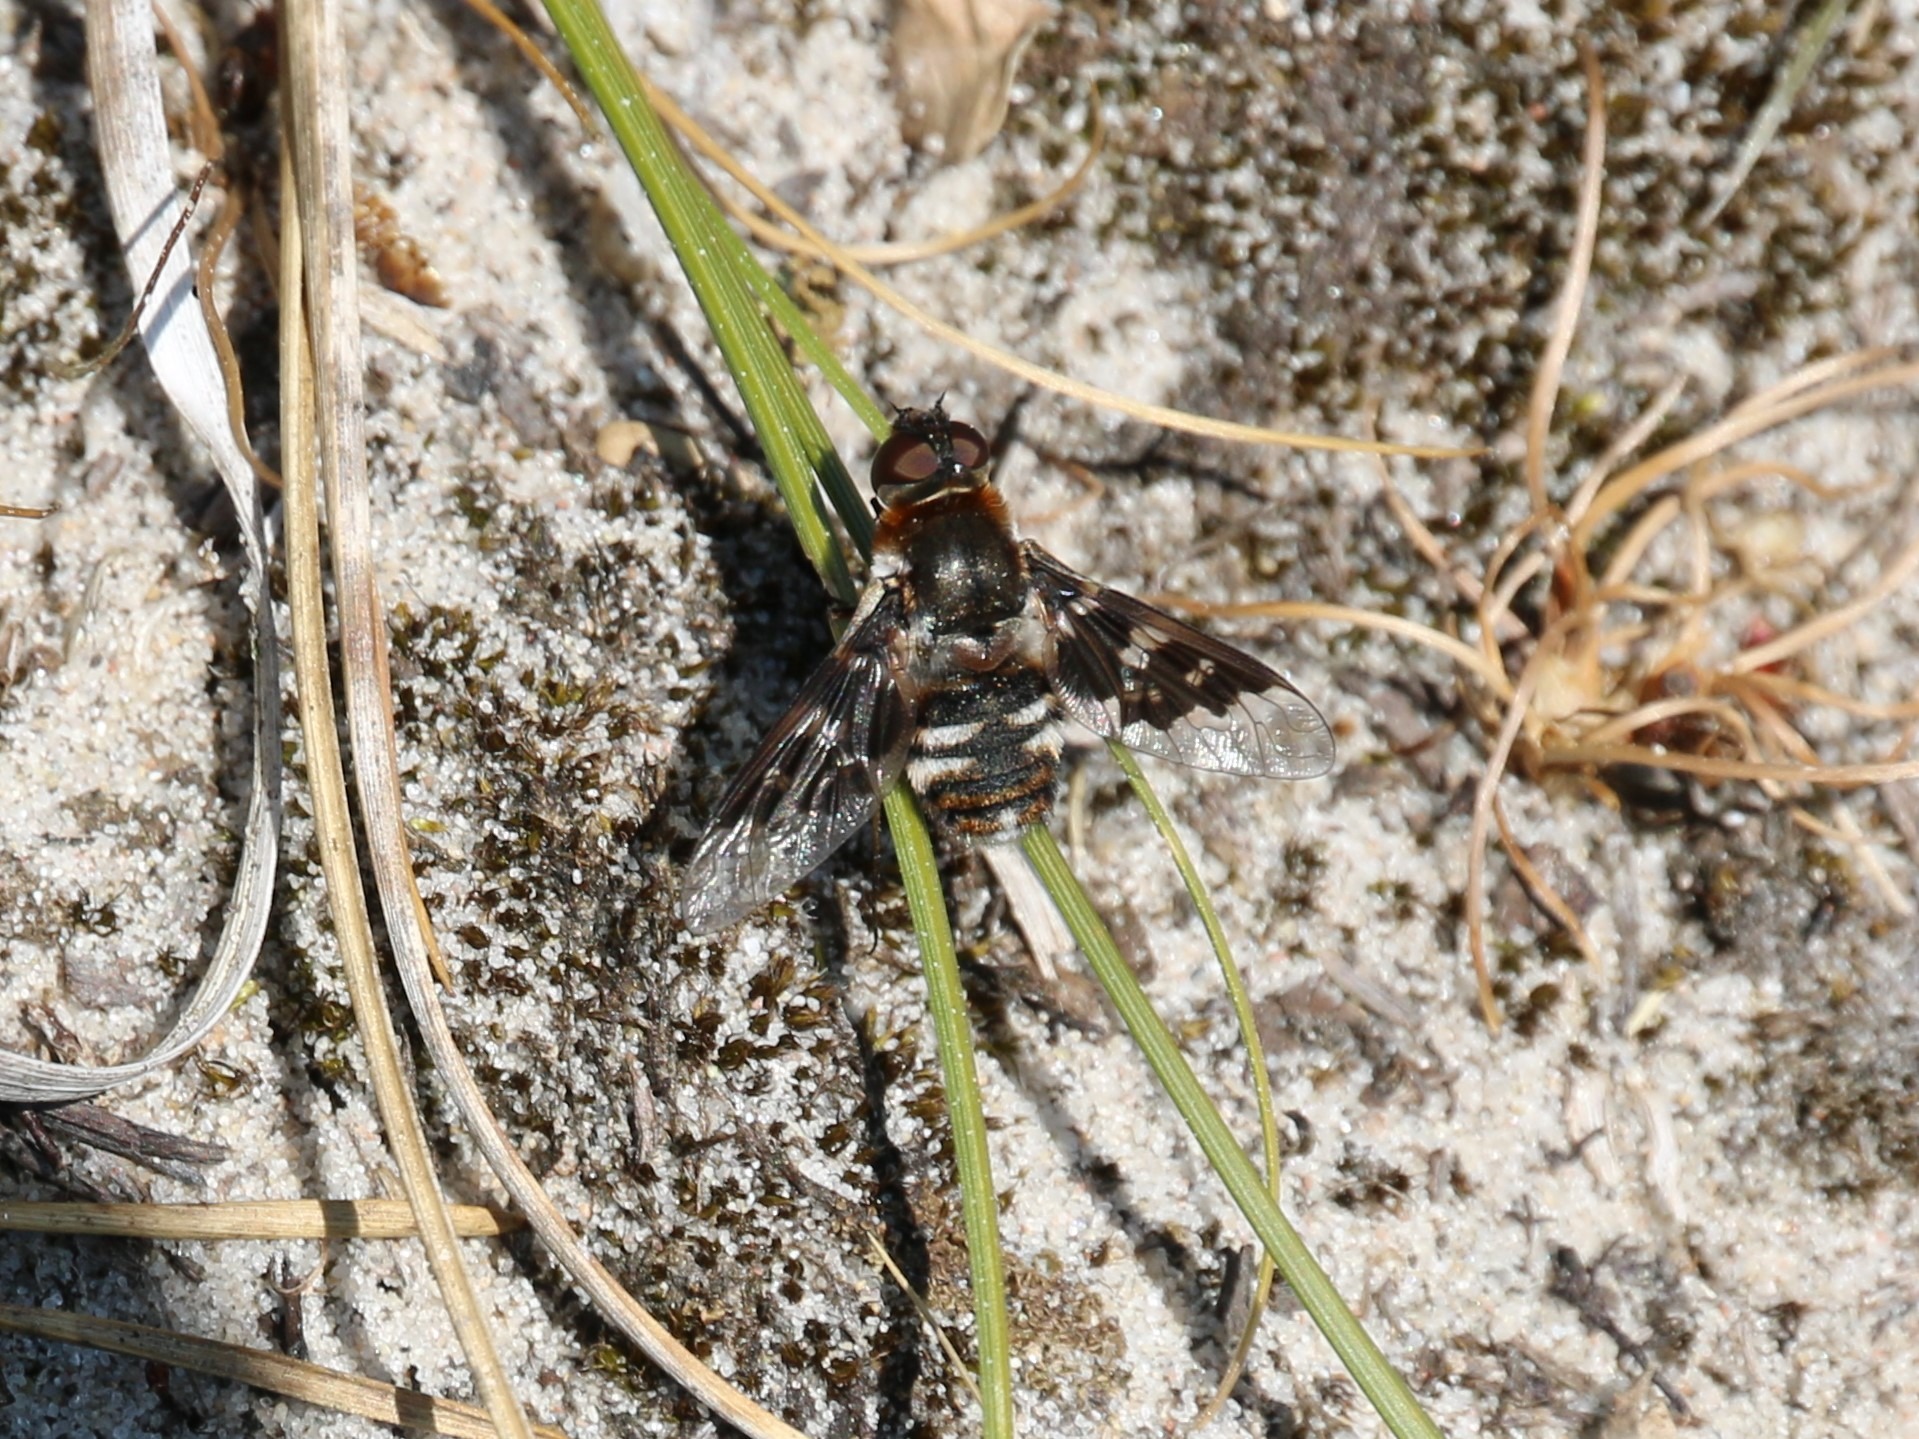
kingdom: Animalia
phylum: Arthropoda
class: Insecta
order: Diptera
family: Bombyliidae
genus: Thyridanthrax
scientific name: Thyridanthrax fenestratus
